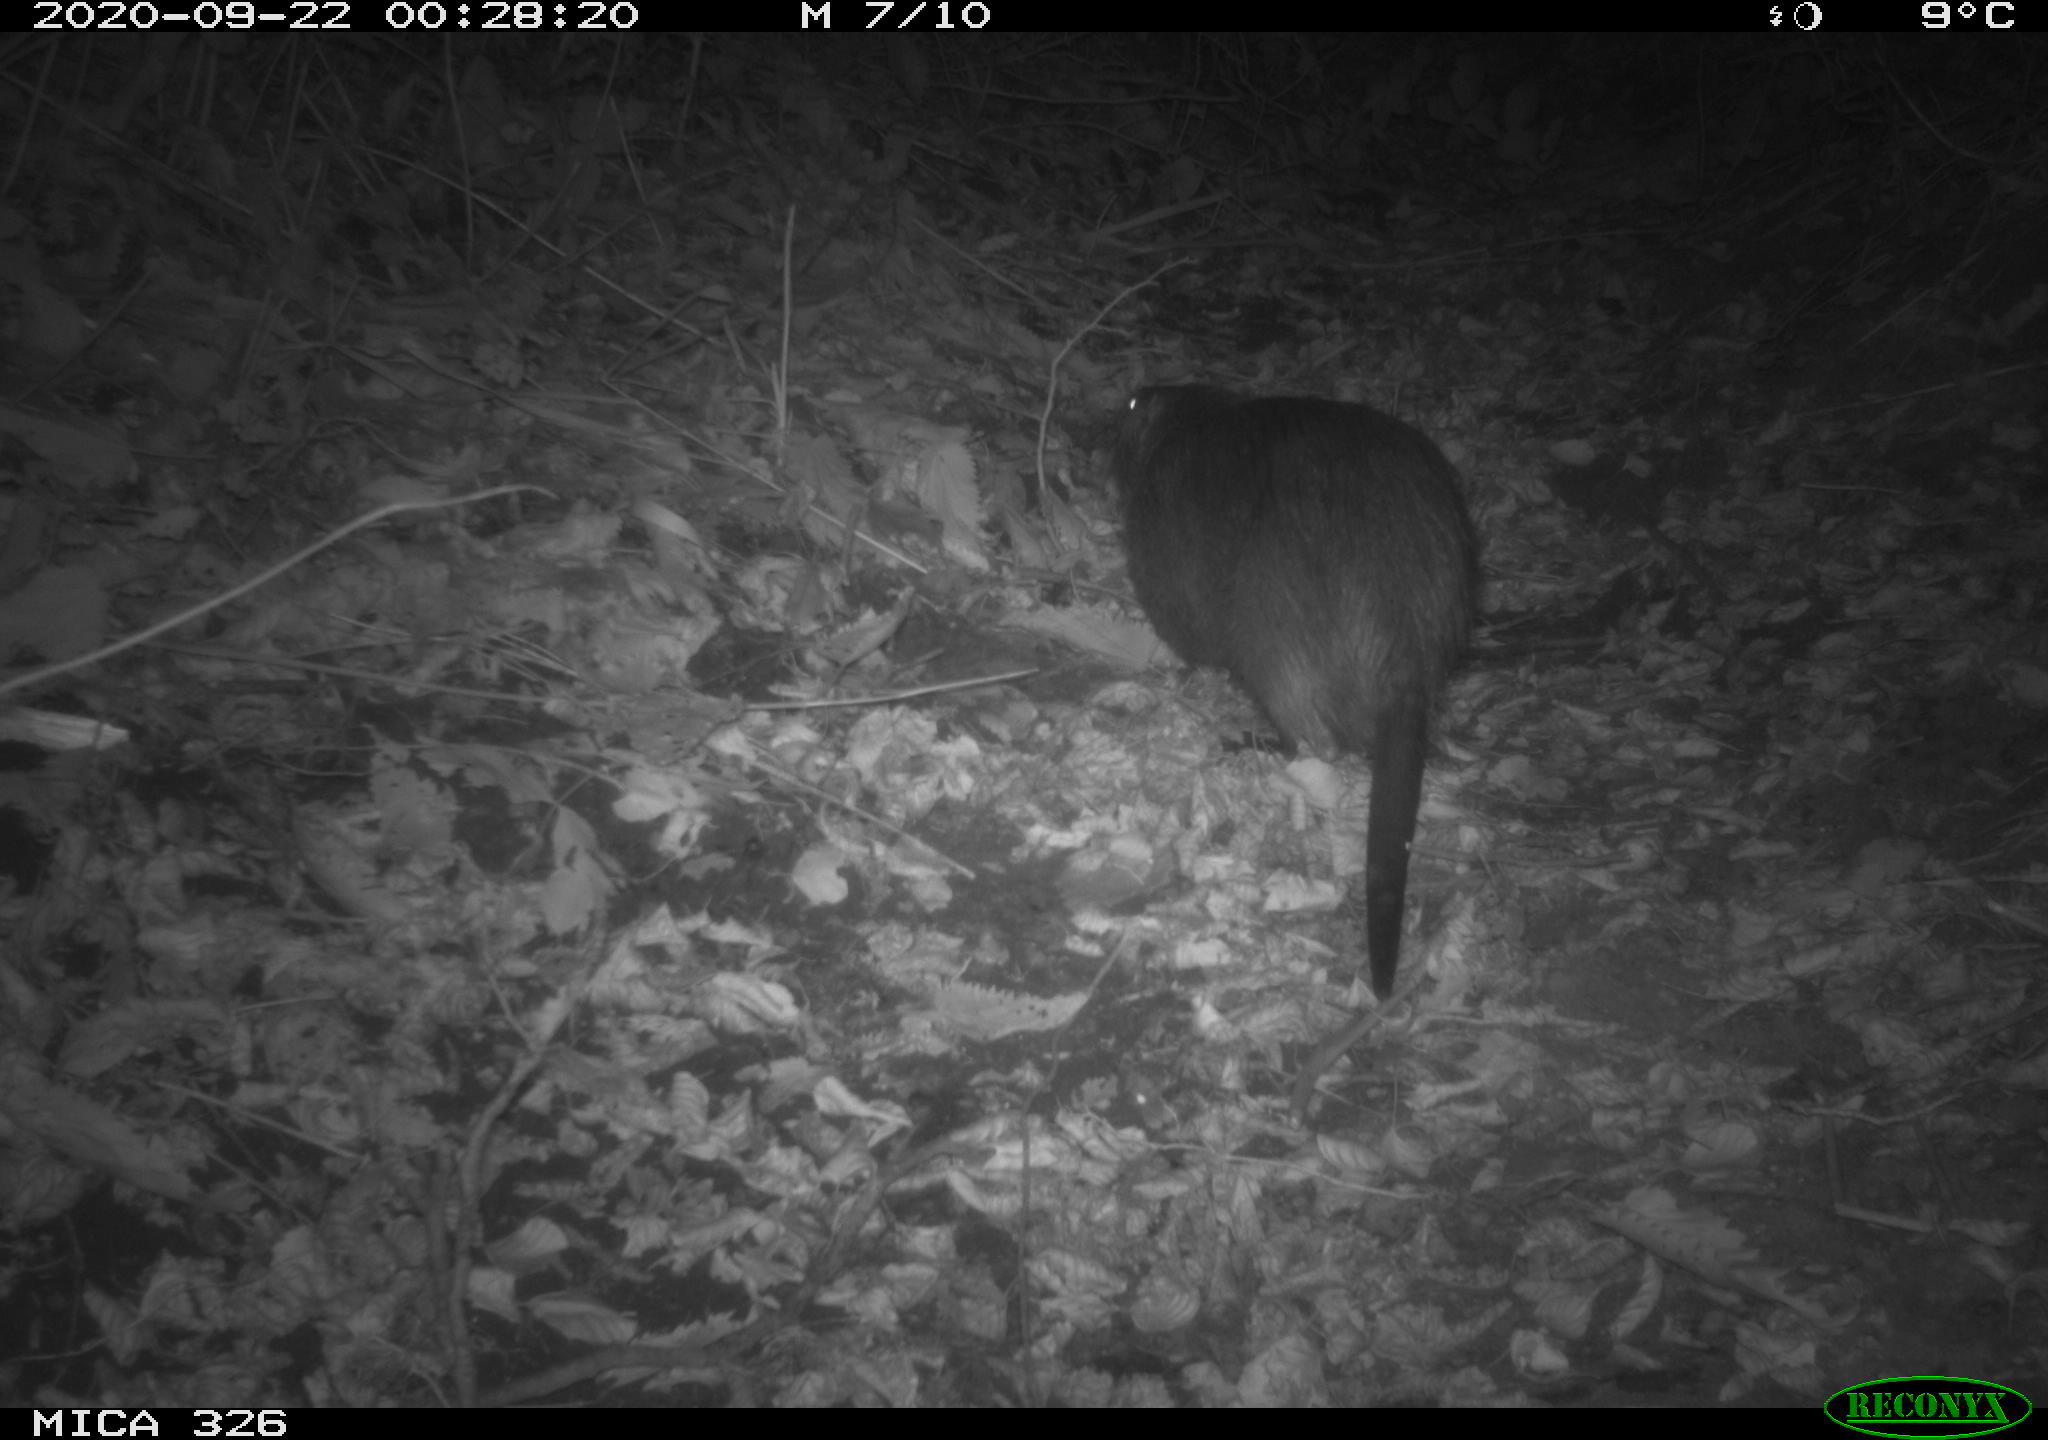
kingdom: Animalia
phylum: Chordata
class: Mammalia
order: Rodentia
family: Myocastoridae
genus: Myocastor
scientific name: Myocastor coypus
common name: Coypu
